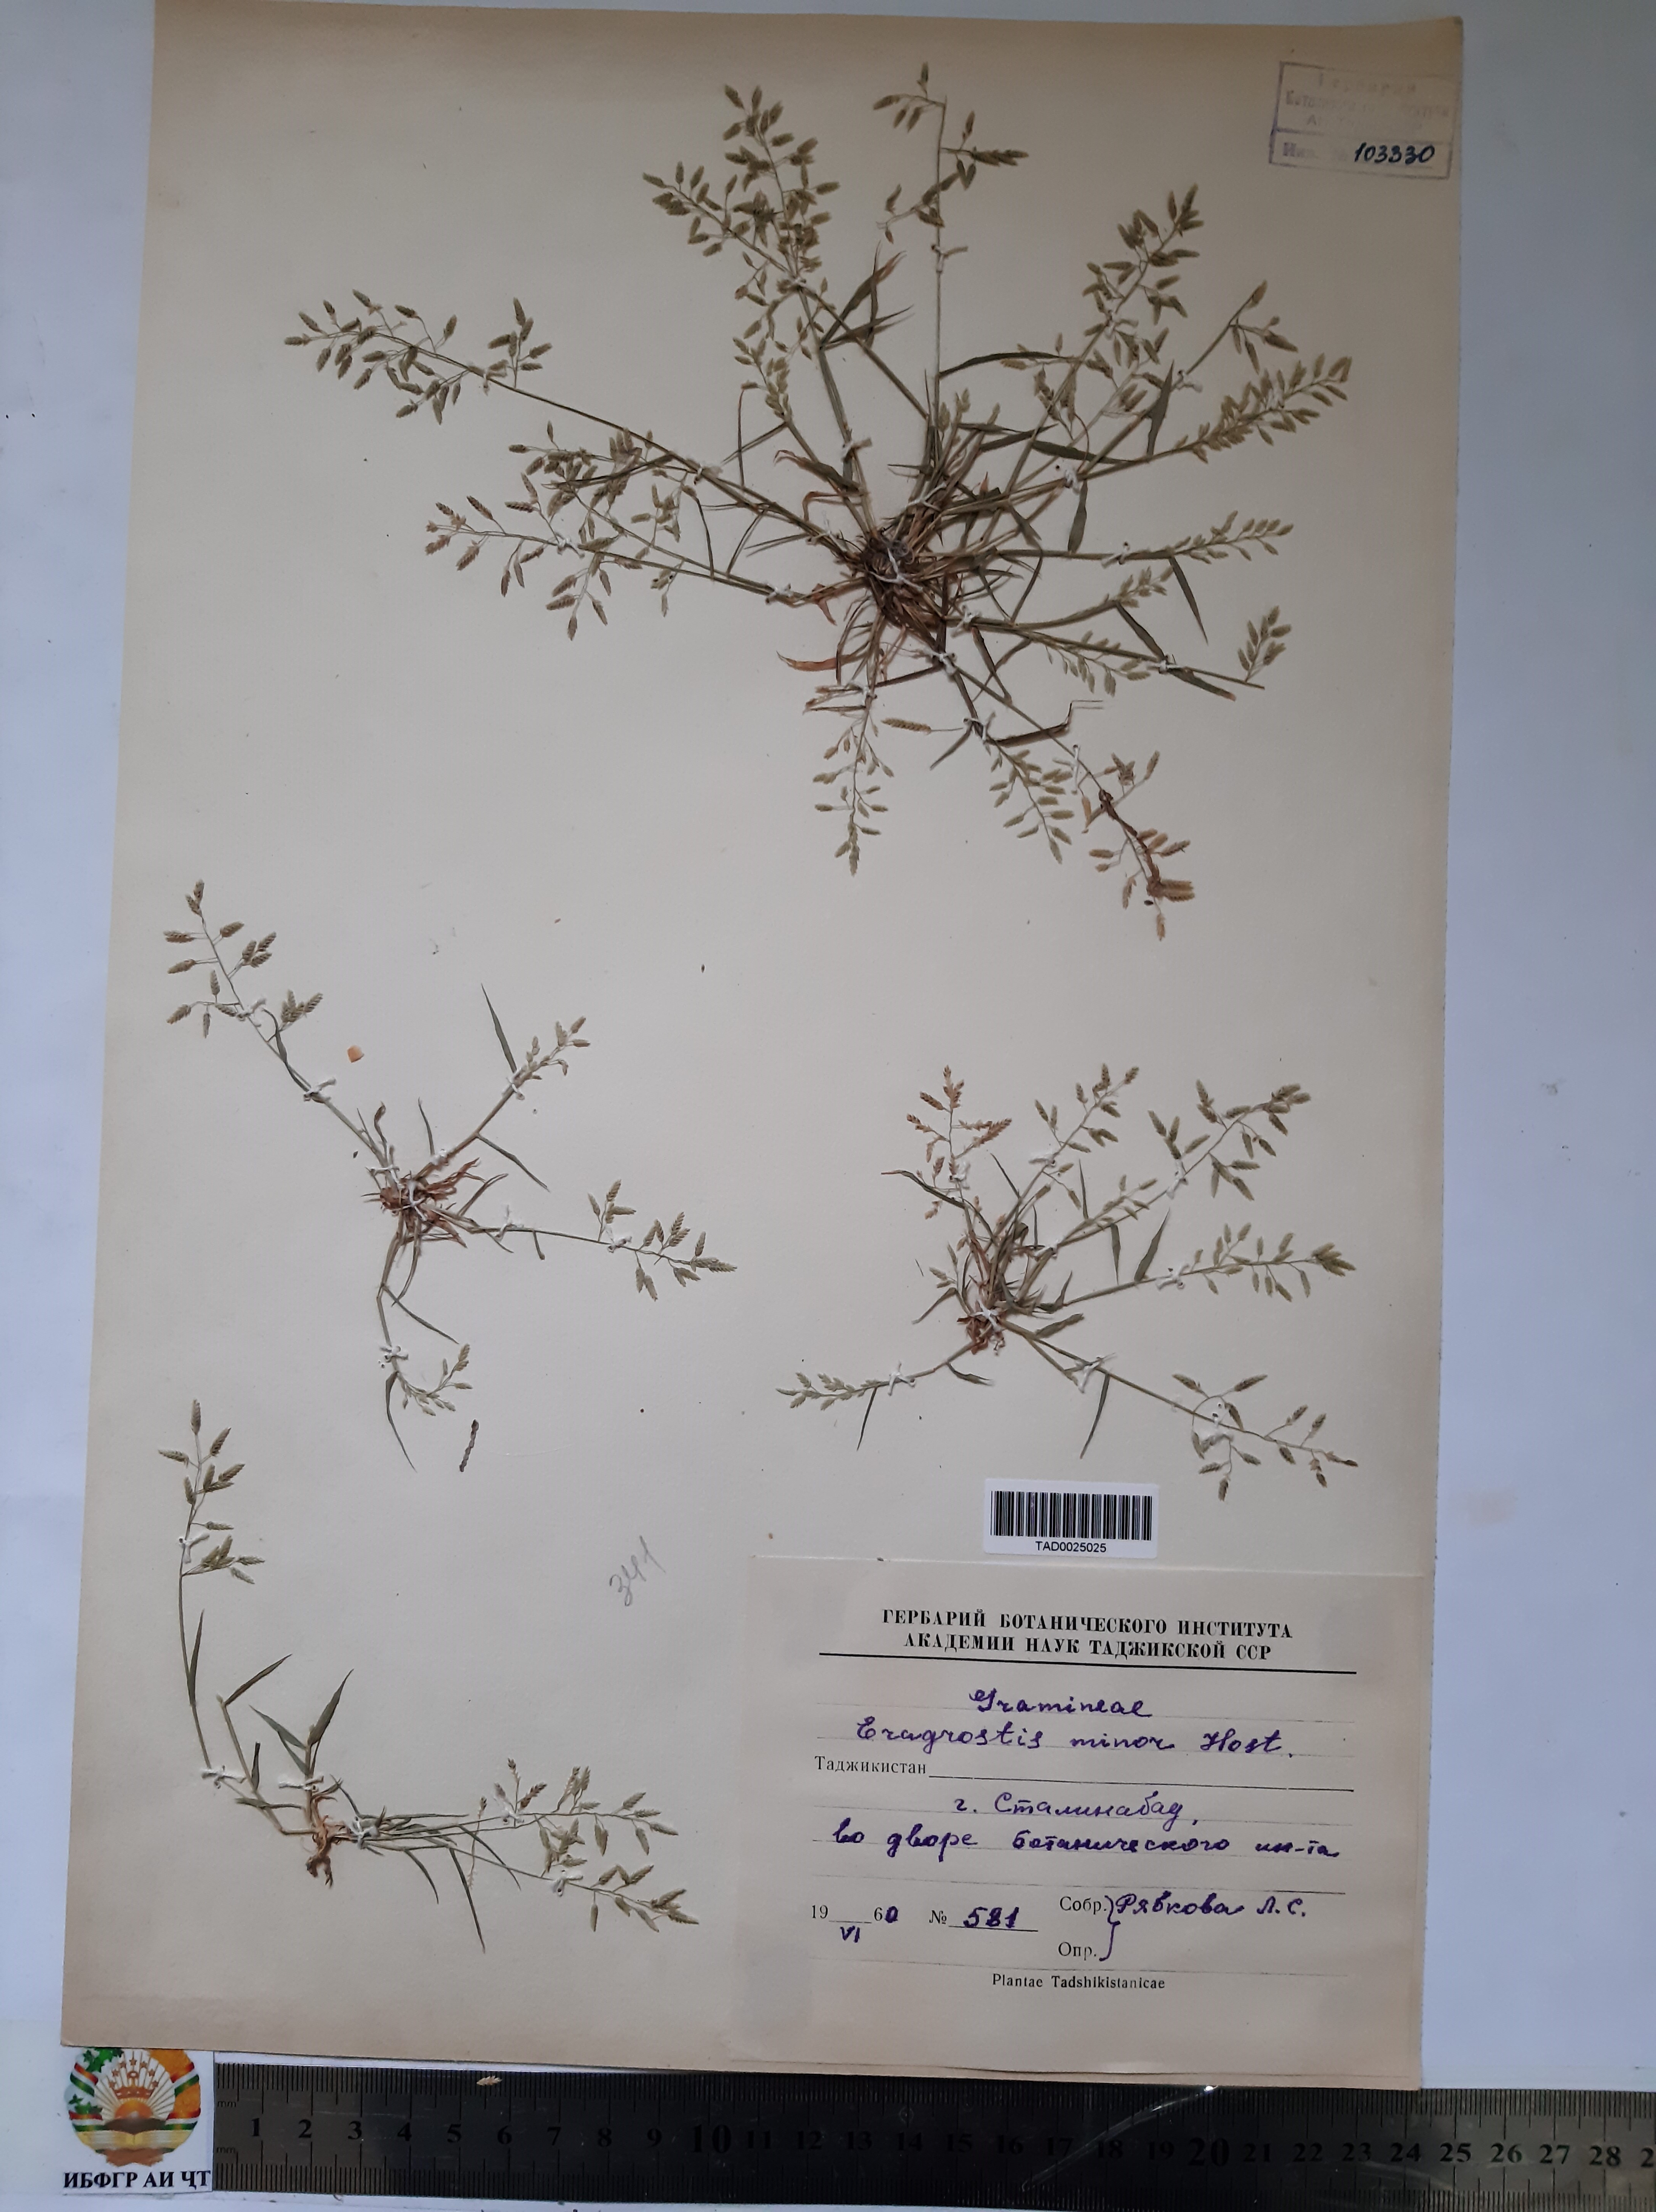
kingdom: Plantae
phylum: Tracheophyta
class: Liliopsida
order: Poales
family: Poaceae
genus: Eragrostis
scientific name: Eragrostis minor
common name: Small love-grass
